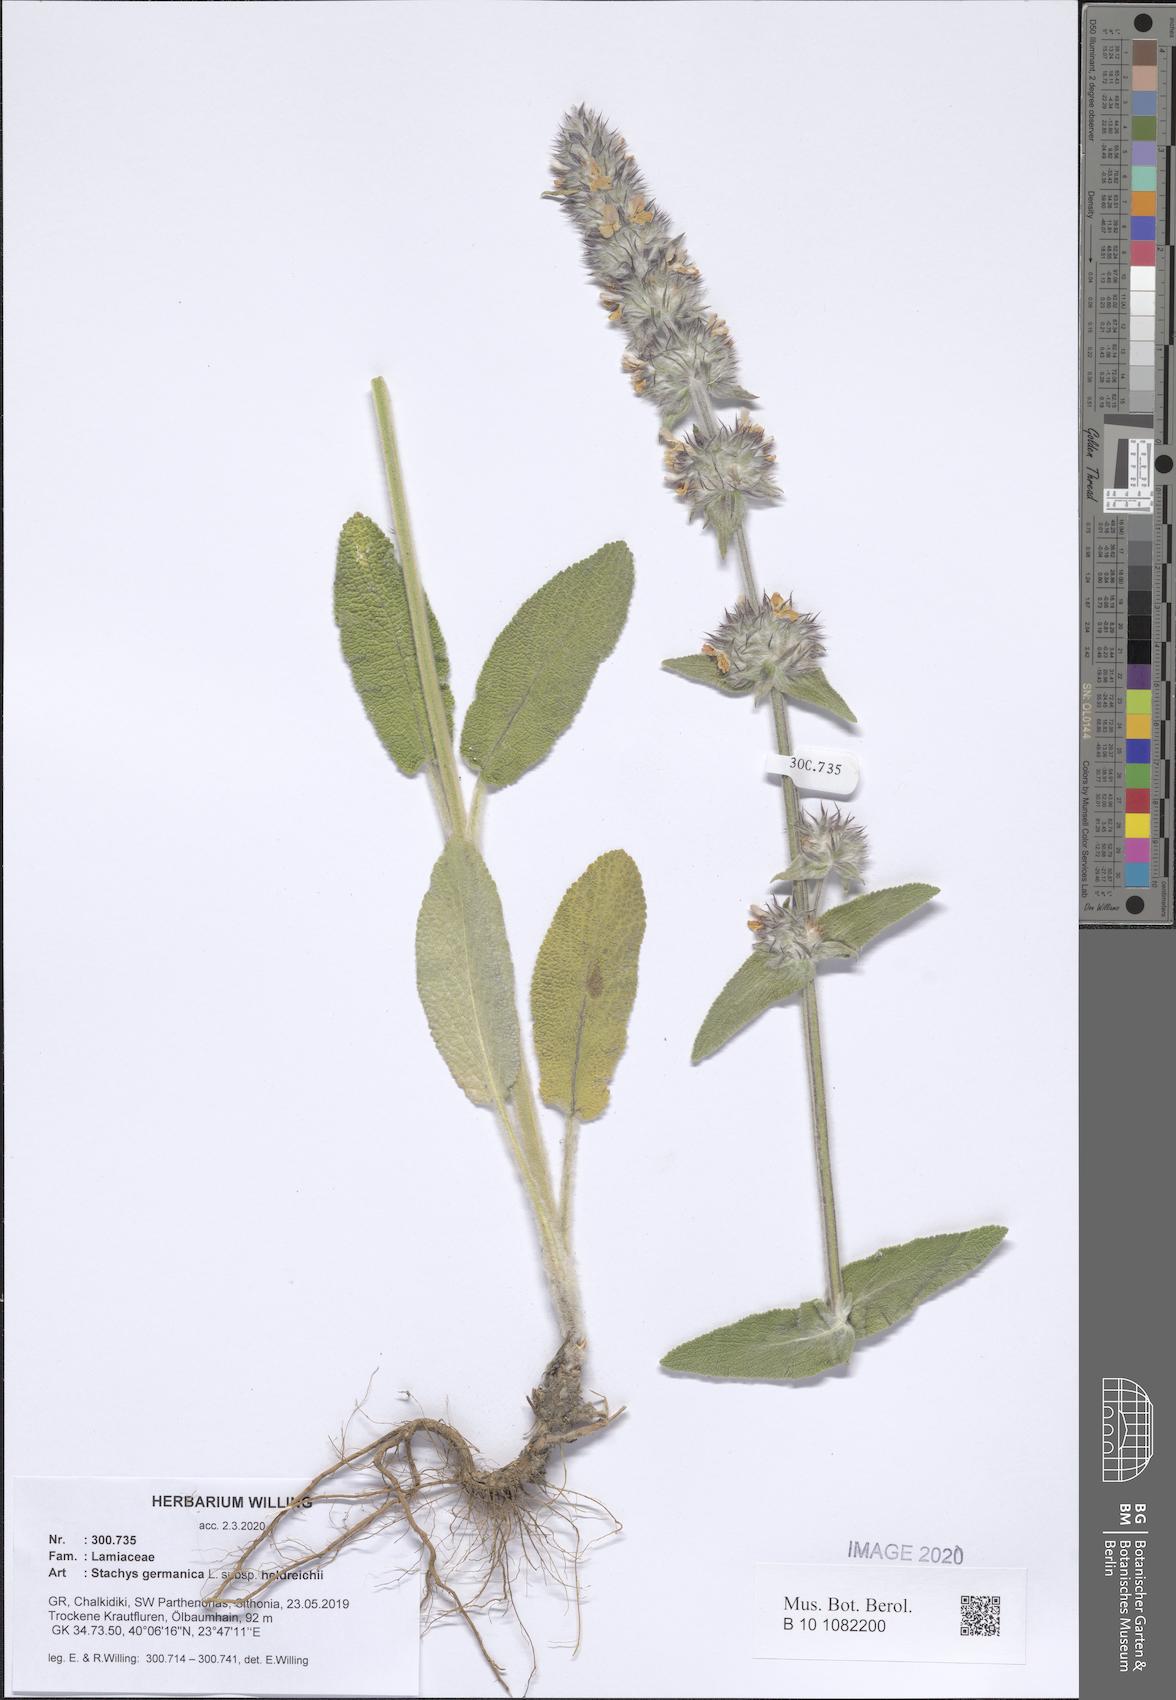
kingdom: Plantae
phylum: Tracheophyta
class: Magnoliopsida
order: Lamiales
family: Lamiaceae
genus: Stachys
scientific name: Stachys germanica
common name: Downy woundwort
